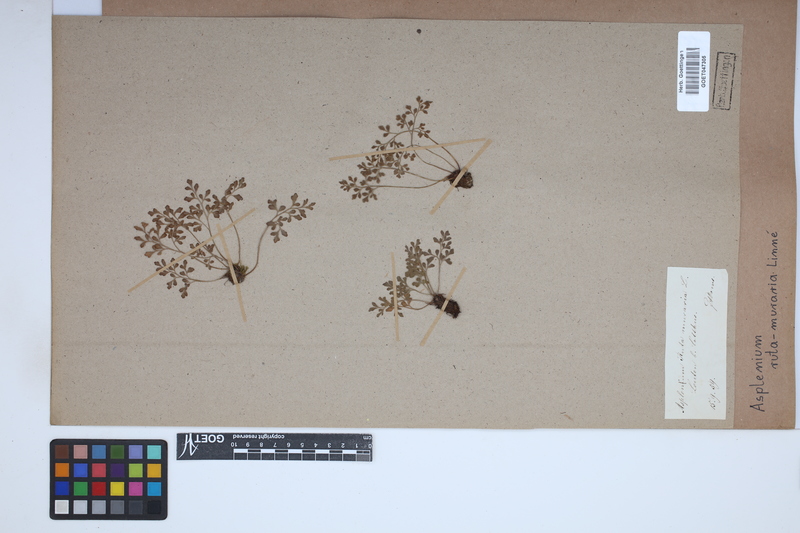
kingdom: Plantae
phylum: Tracheophyta
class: Polypodiopsida
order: Polypodiales
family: Aspleniaceae
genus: Asplenium
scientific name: Asplenium ruta-muraria
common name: Wall-rue
